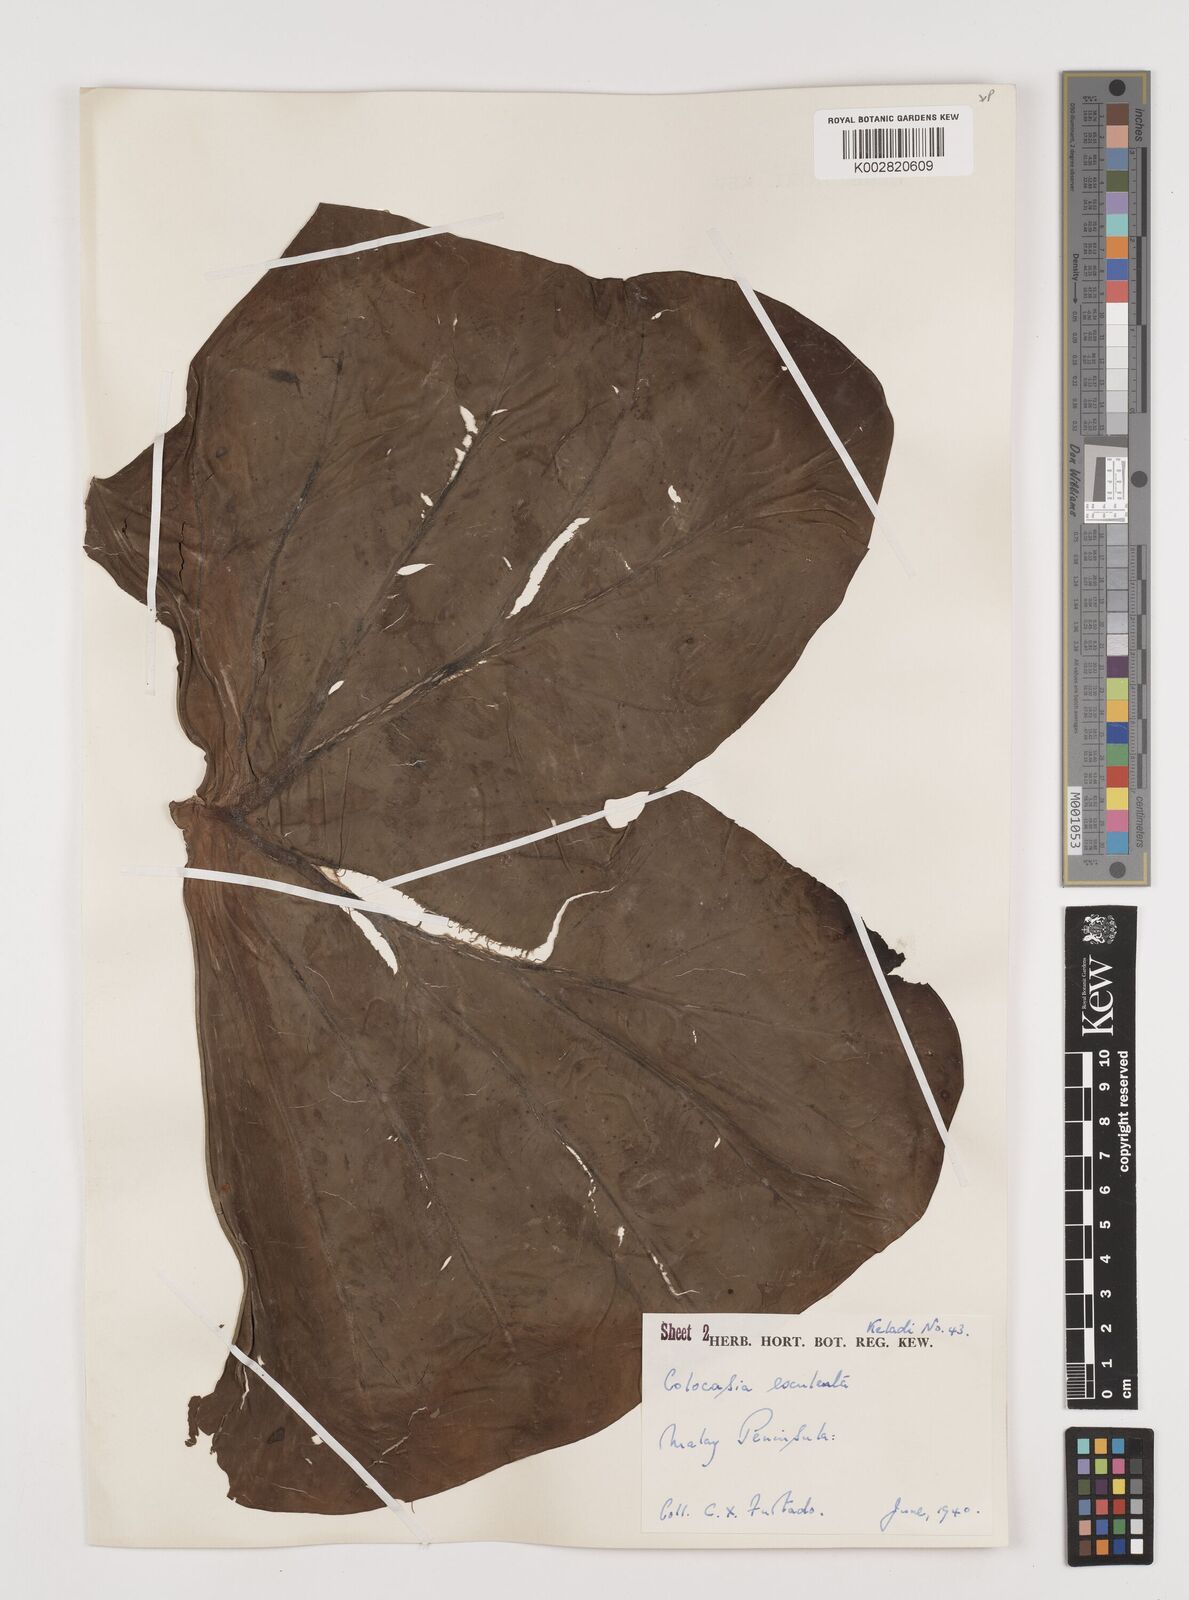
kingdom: Plantae
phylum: Tracheophyta
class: Liliopsida
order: Alismatales
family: Araceae
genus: Colocasia
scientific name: Colocasia esculenta
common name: Taro
